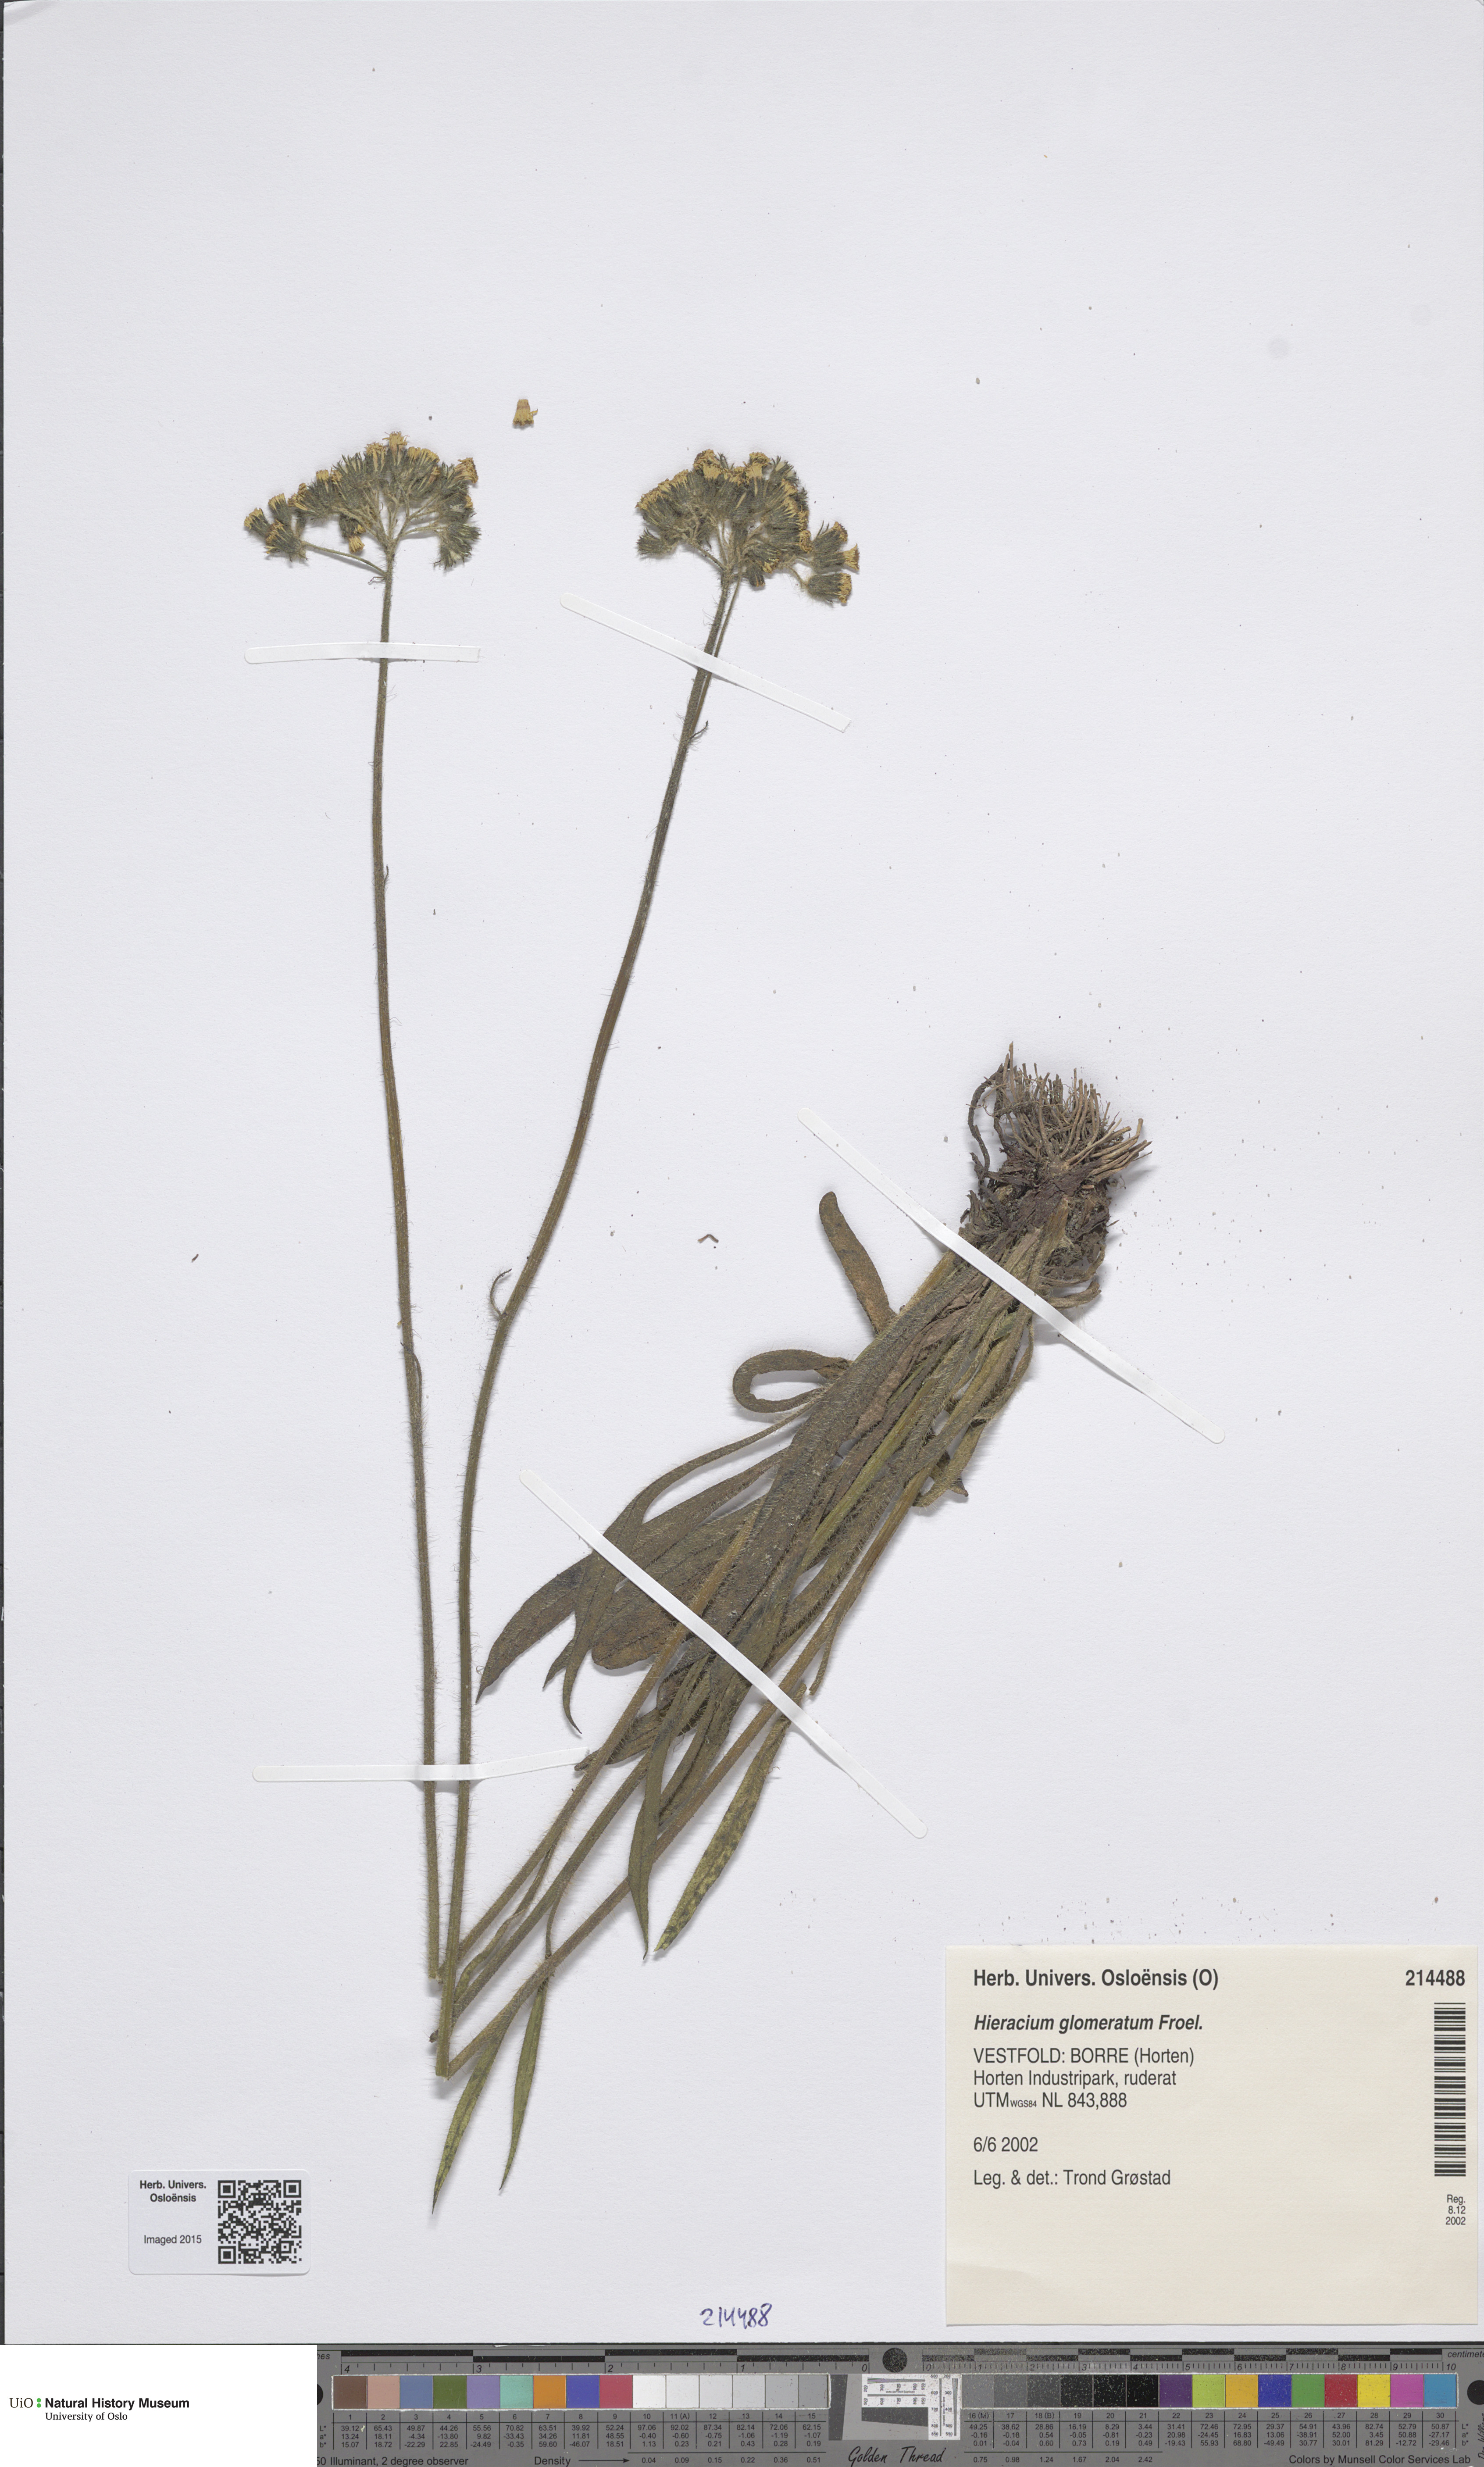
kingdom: Plantae
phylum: Tracheophyta
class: Magnoliopsida
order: Asterales
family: Asteraceae
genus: Pilosella
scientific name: Pilosella glomerata
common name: Queen devil hawkweed
